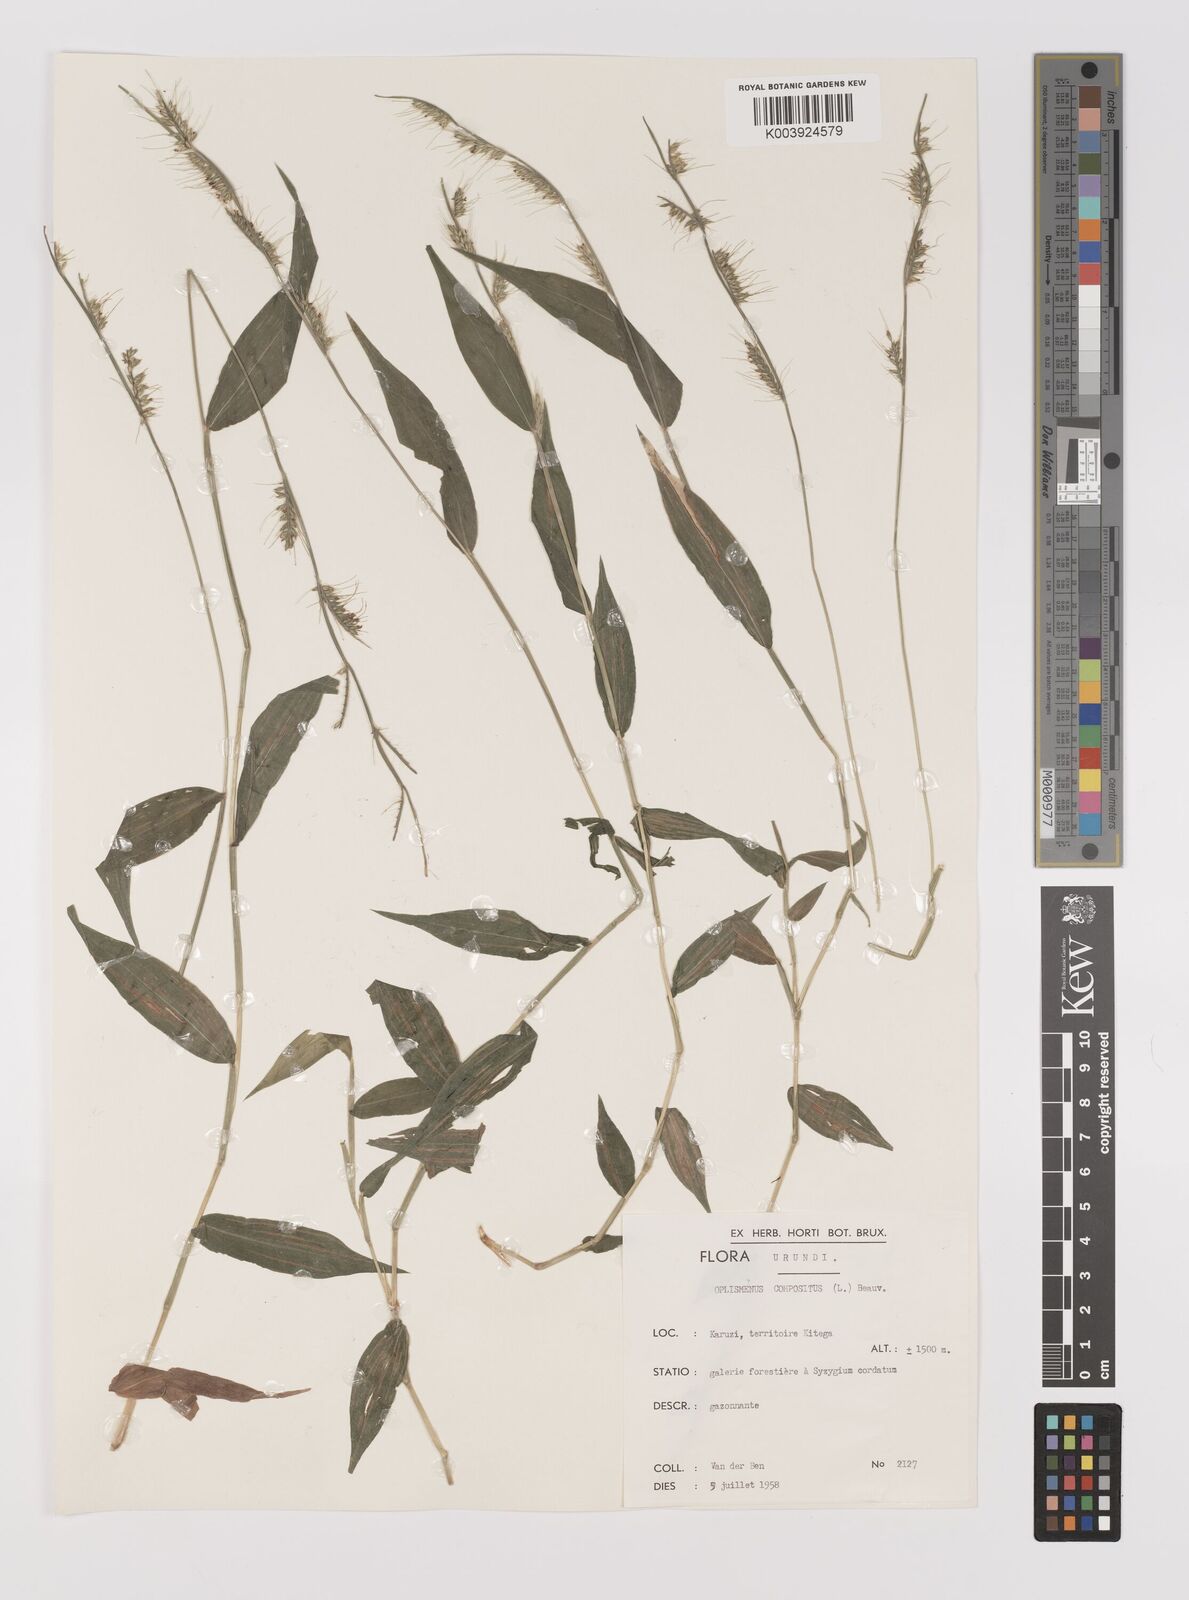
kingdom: Plantae
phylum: Tracheophyta
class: Liliopsida
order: Poales
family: Poaceae
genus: Oplismenus
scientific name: Oplismenus hirtellus
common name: Basketgrass
